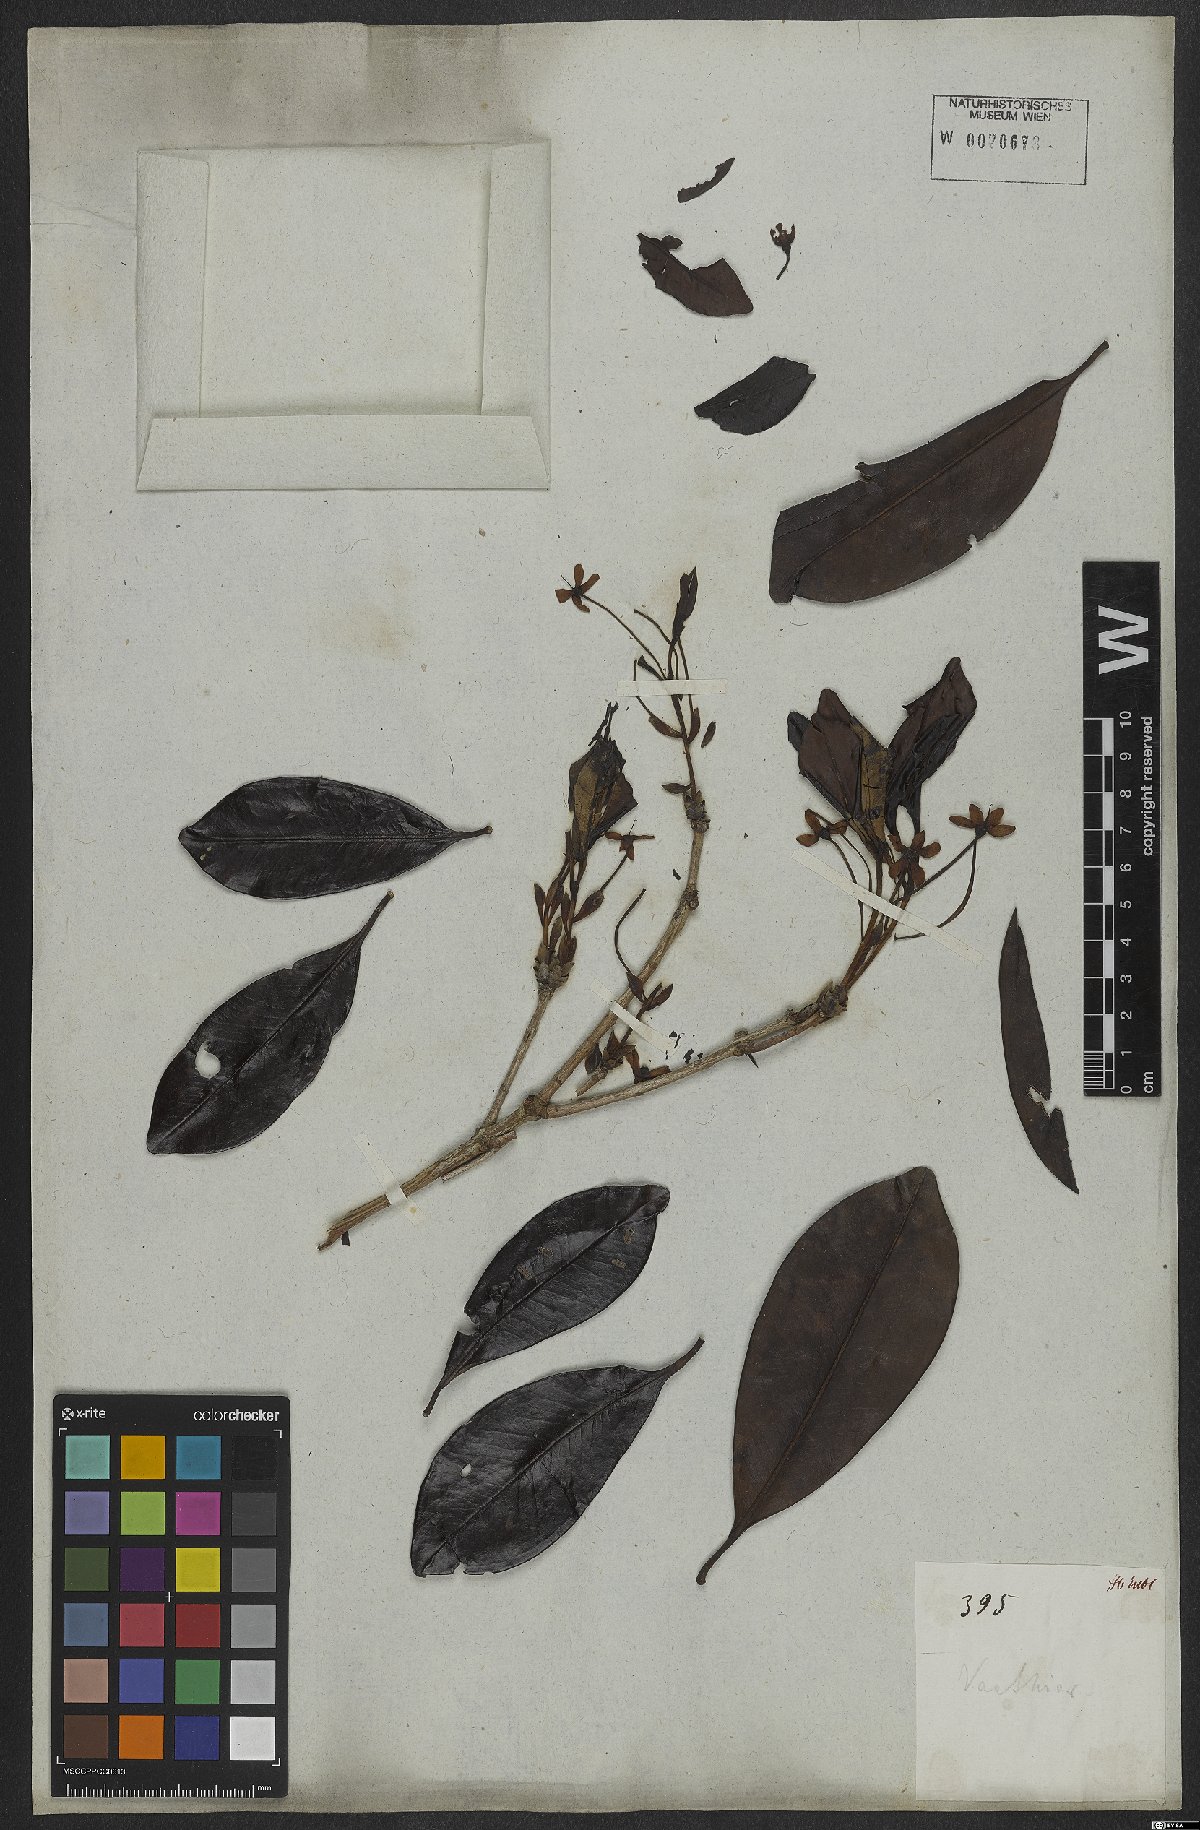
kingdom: Plantae
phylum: Tracheophyta
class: Magnoliopsida
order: Myrtales
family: Myrtaceae
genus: Eugenia
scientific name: Eugenia brasiliensis
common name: Grumichama
